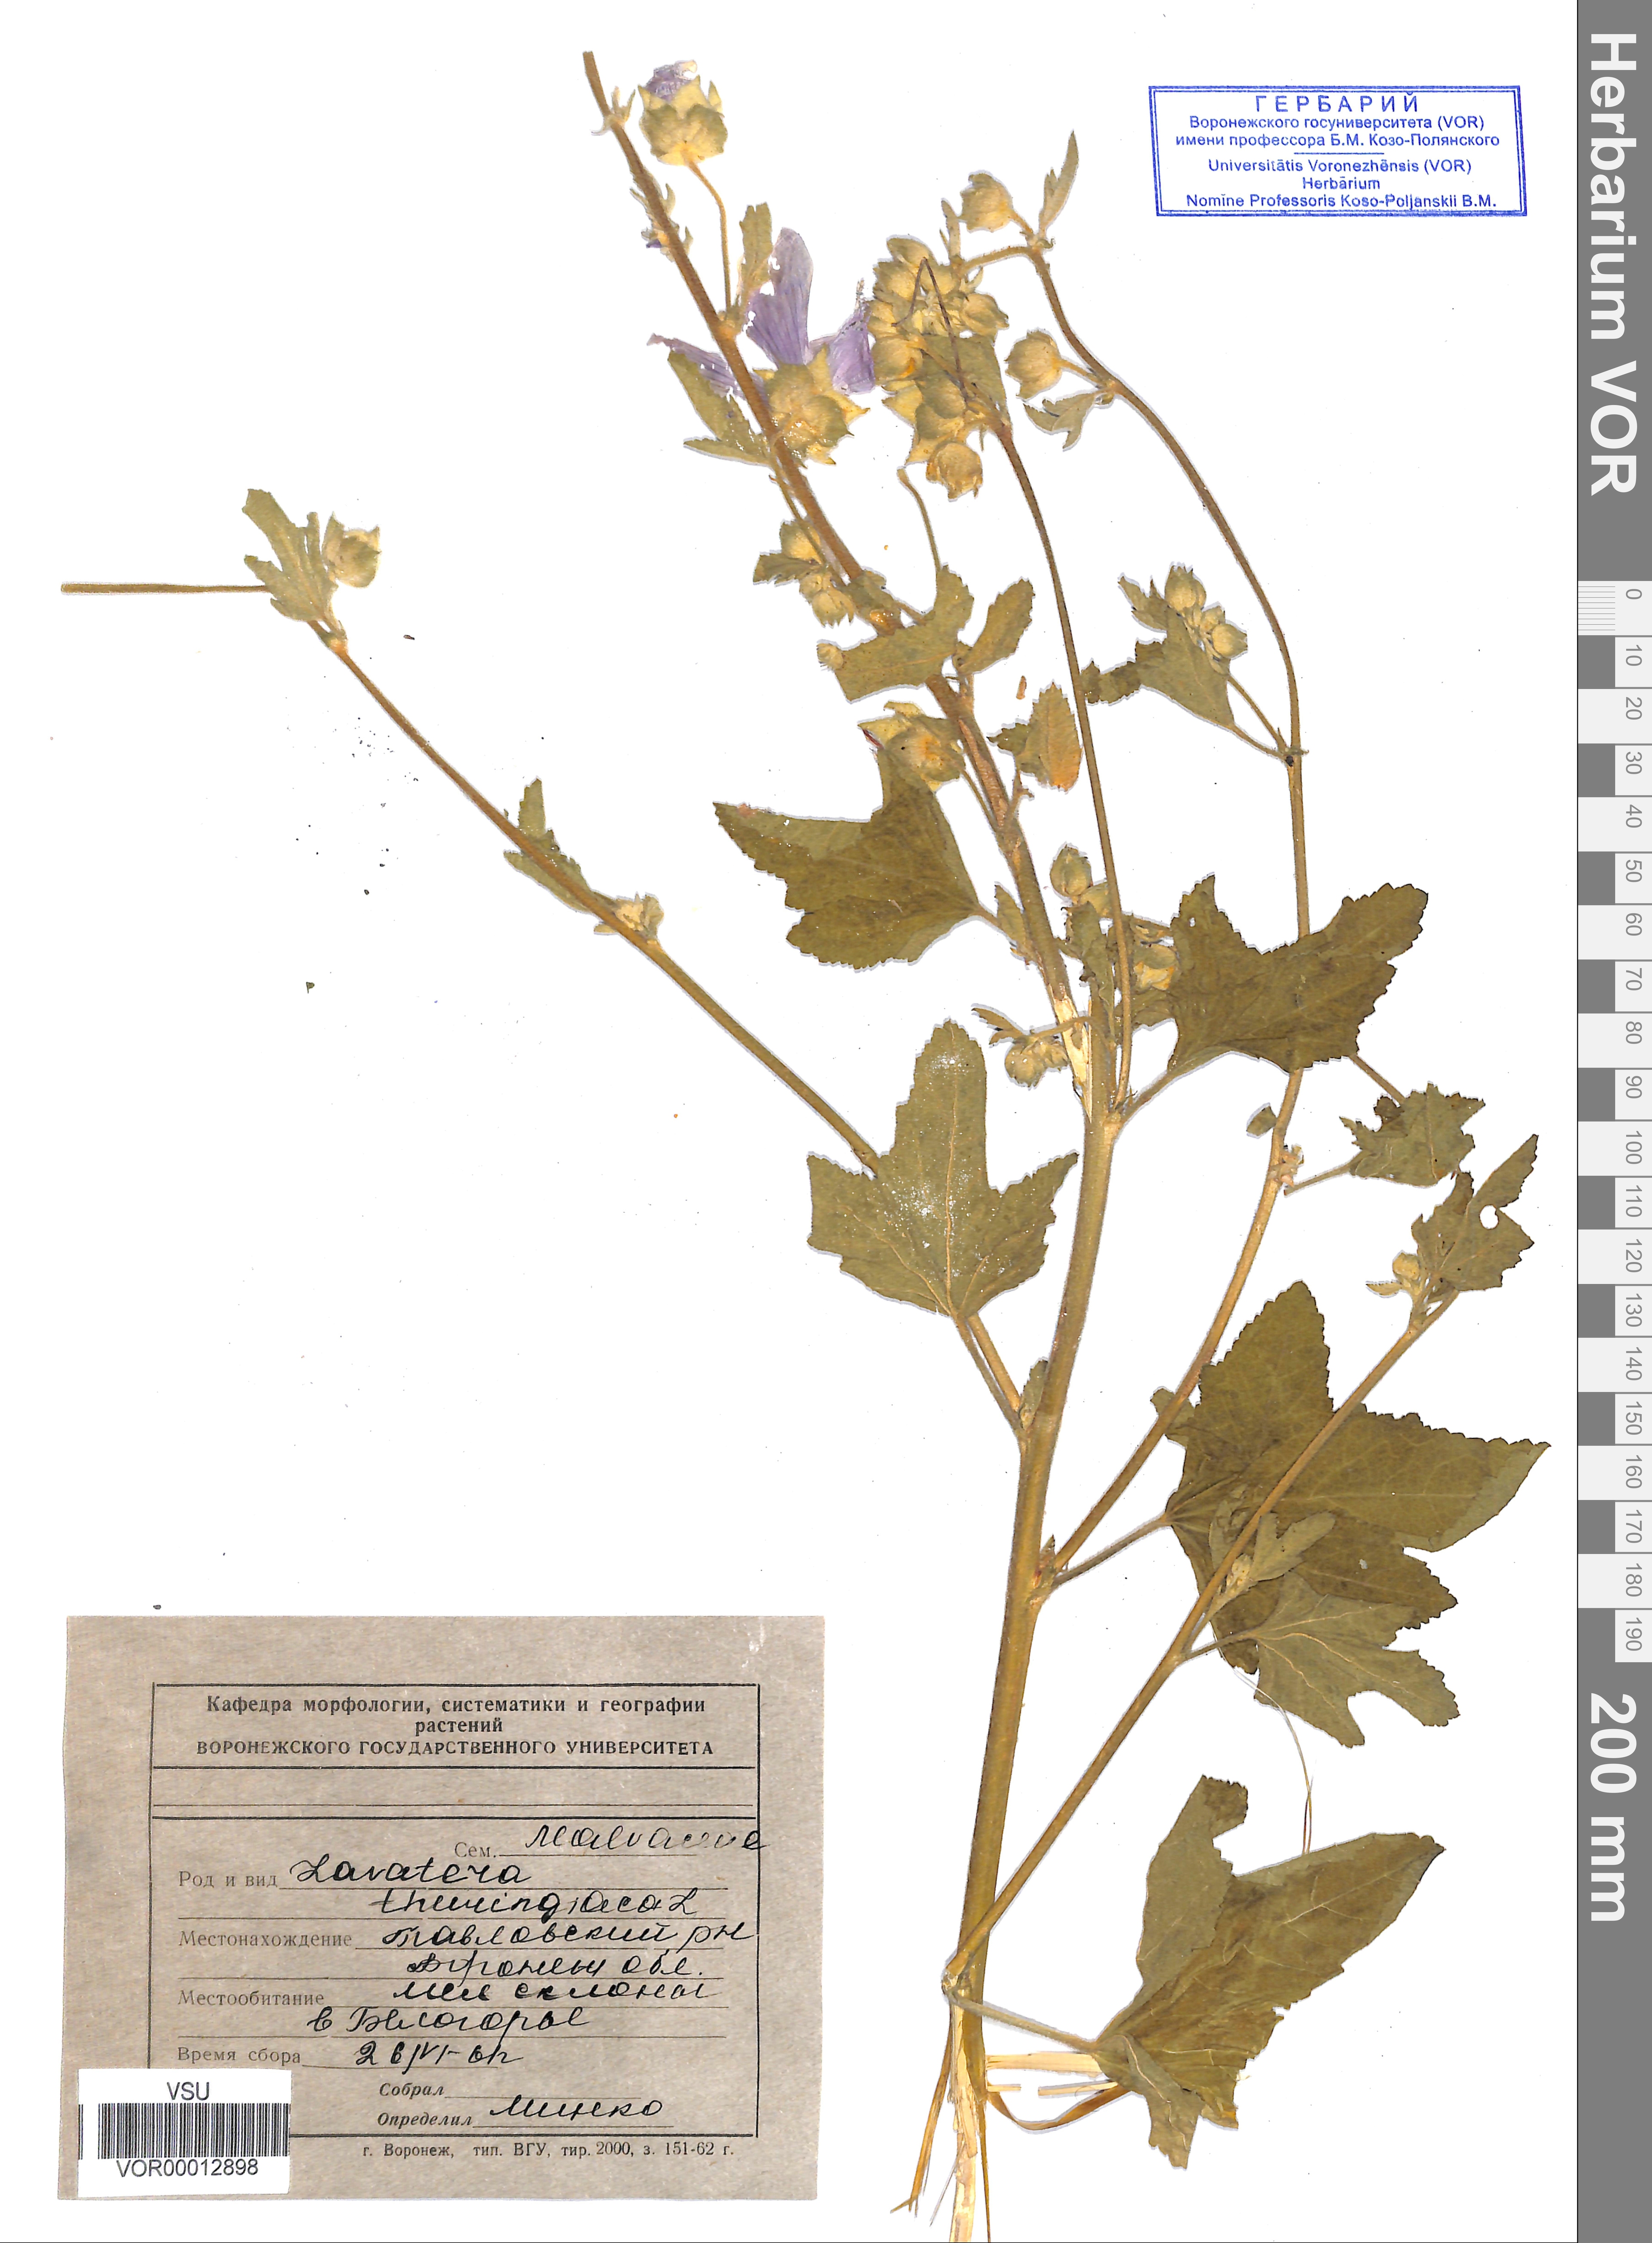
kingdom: Plantae
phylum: Tracheophyta
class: Magnoliopsida
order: Malvales
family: Malvaceae
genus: Malva
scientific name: Malva thuringiaca
